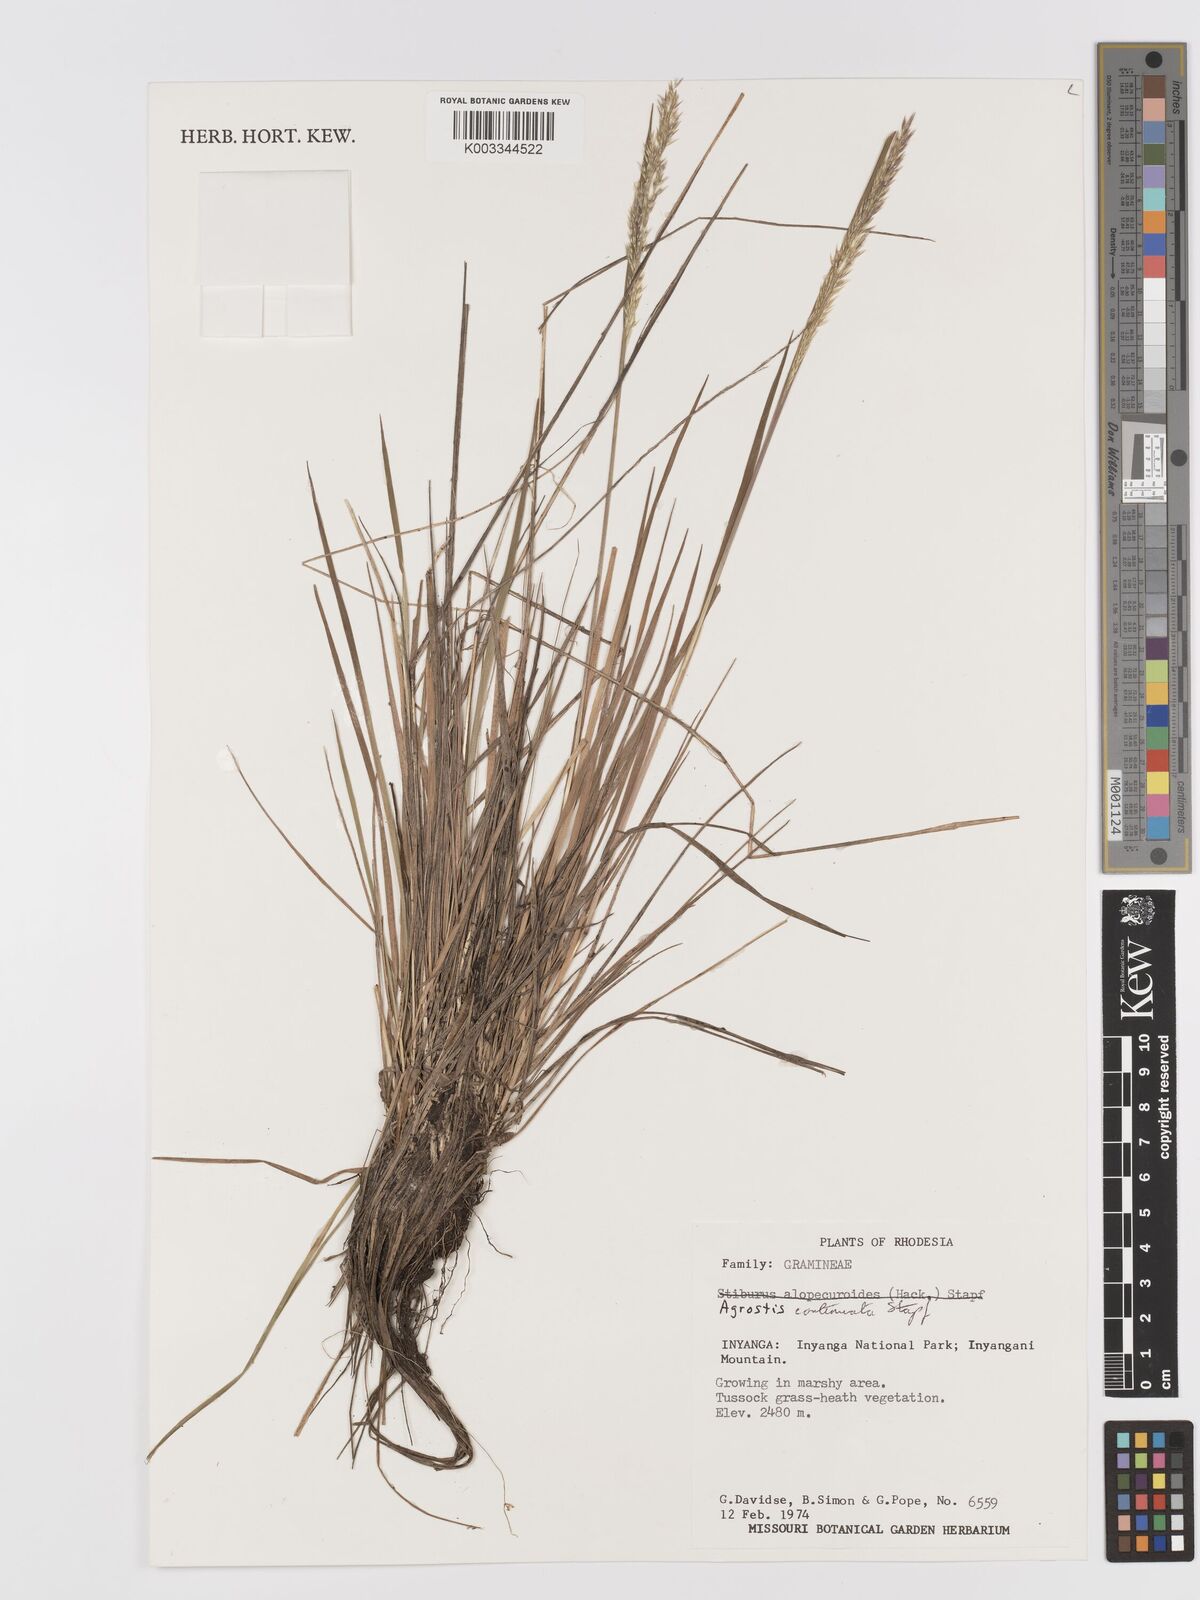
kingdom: Plantae
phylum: Tracheophyta
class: Liliopsida
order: Poales
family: Poaceae
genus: Agrostis
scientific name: Agrostis continuata
